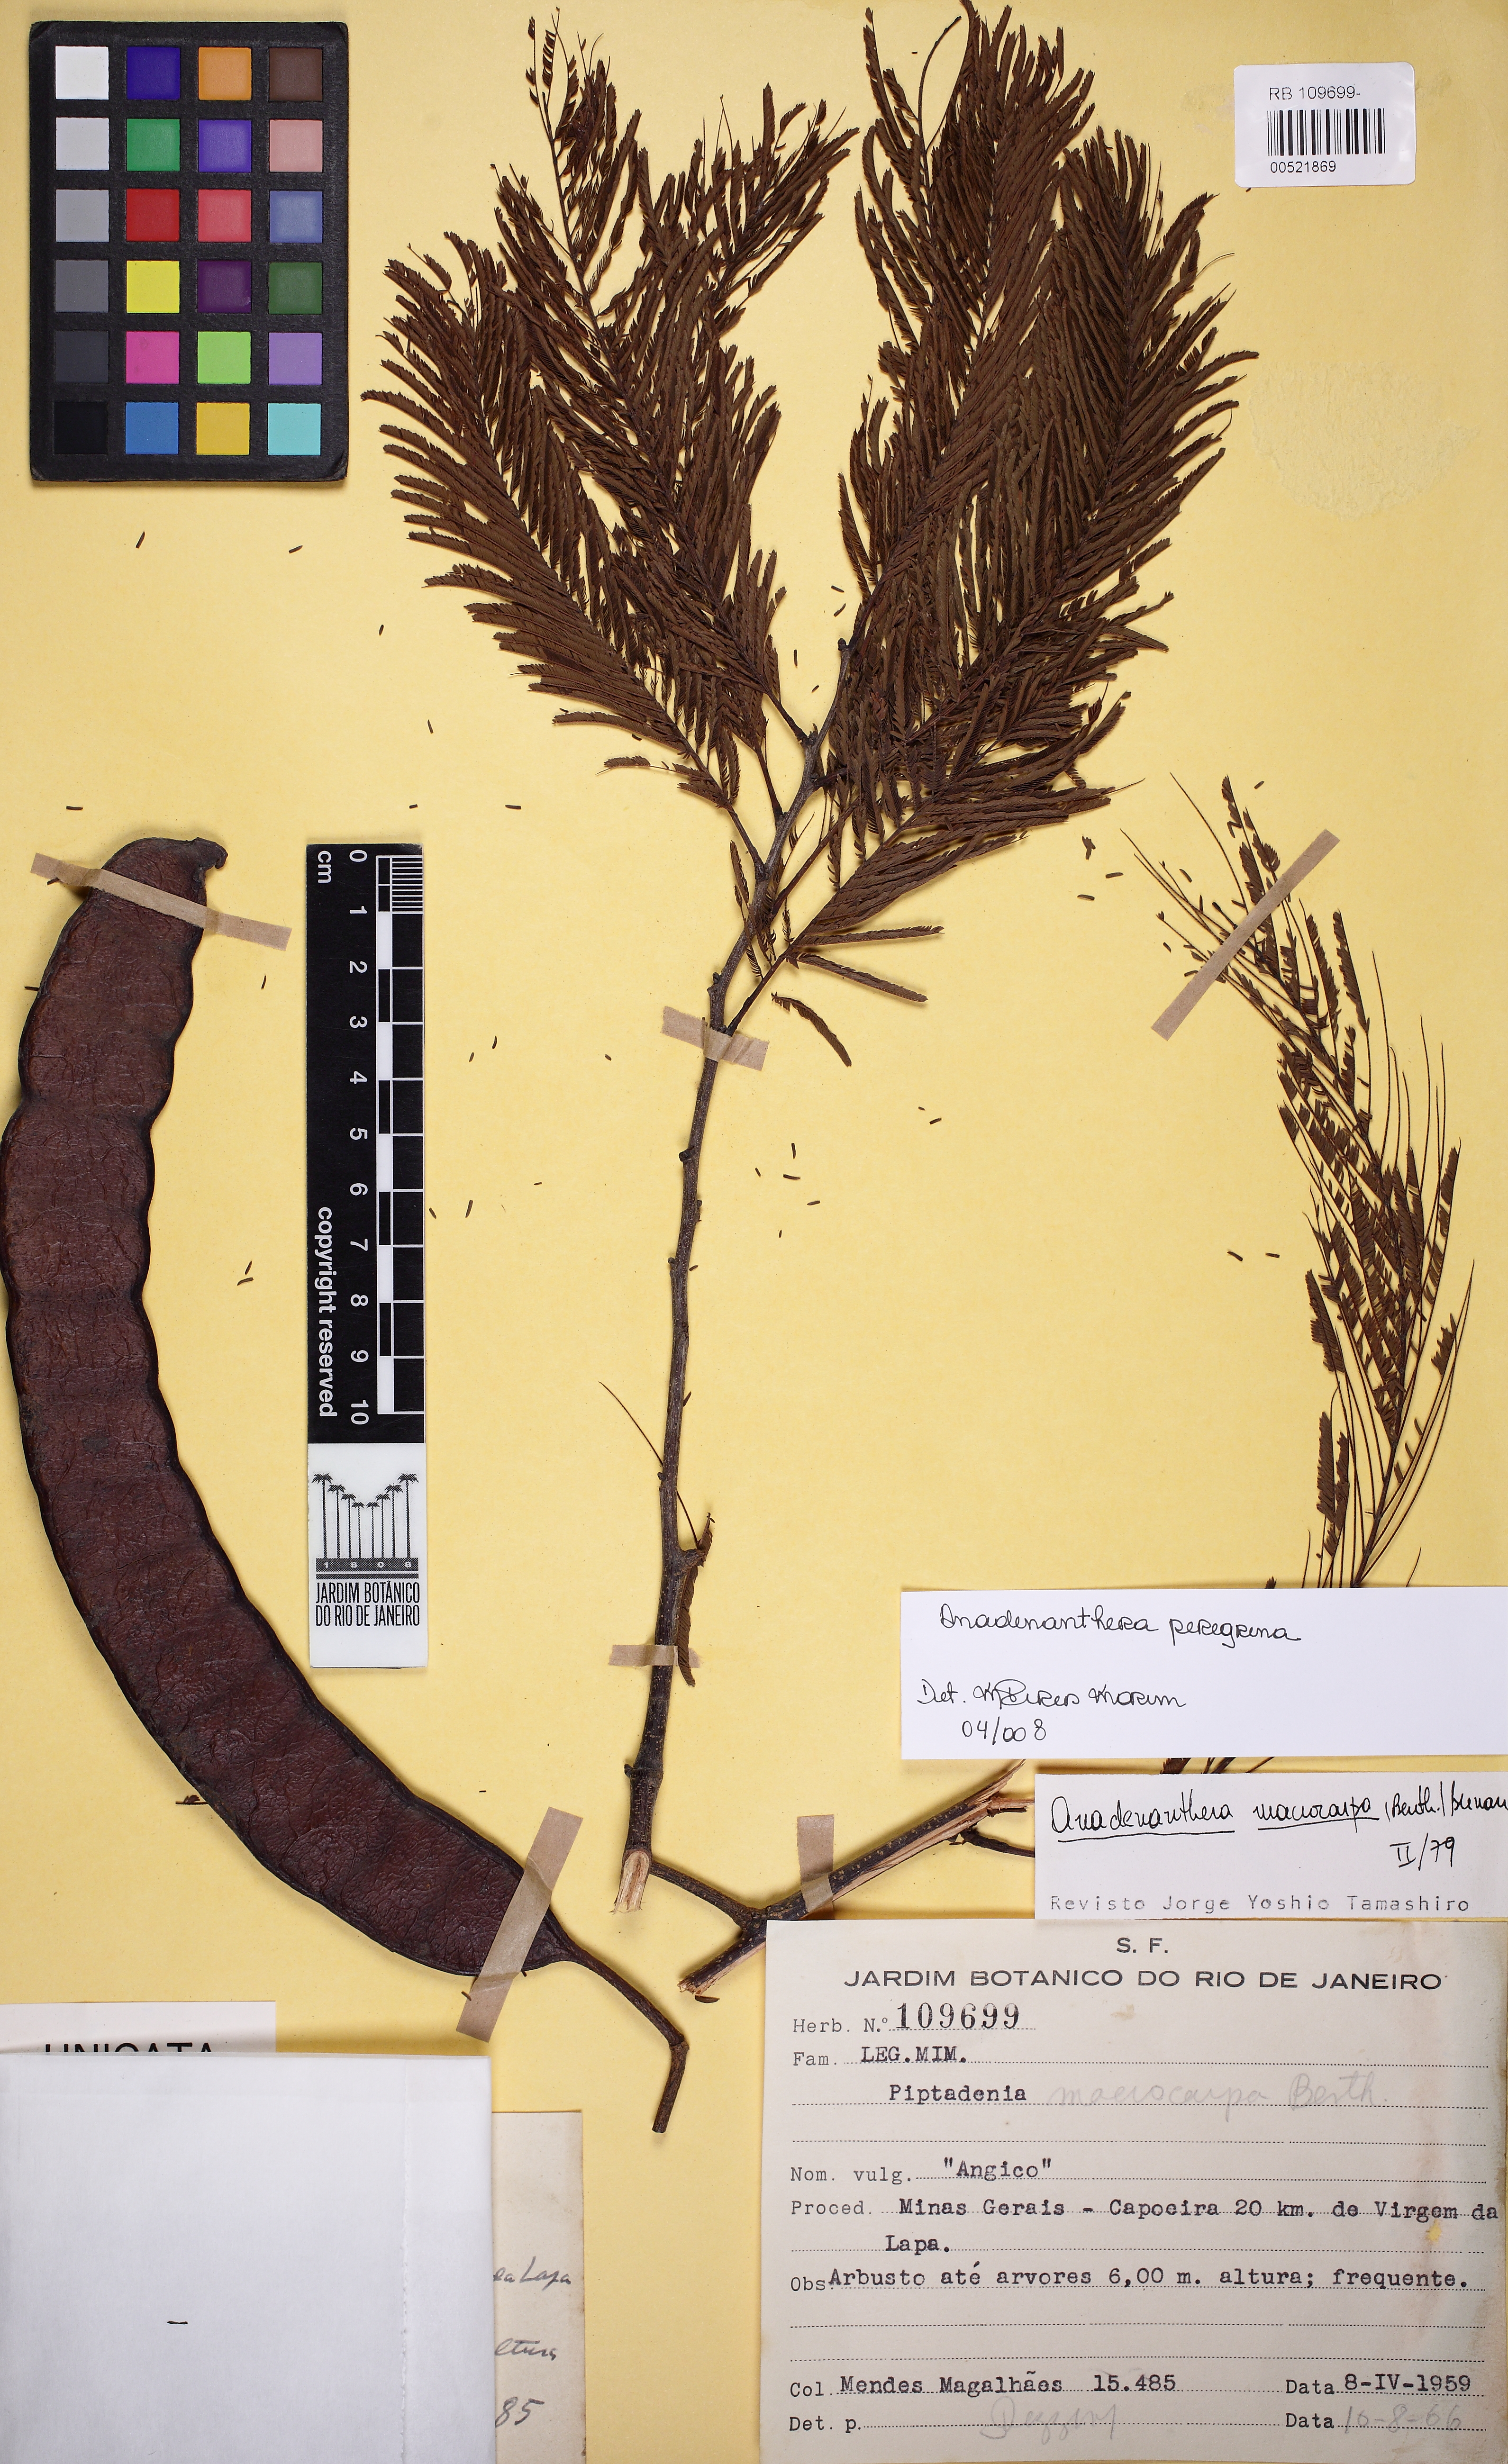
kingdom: Plantae
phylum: Tracheophyta
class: Magnoliopsida
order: Fabales
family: Fabaceae
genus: Anadenanthera
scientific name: Anadenanthera peregrina
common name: Cohoba
